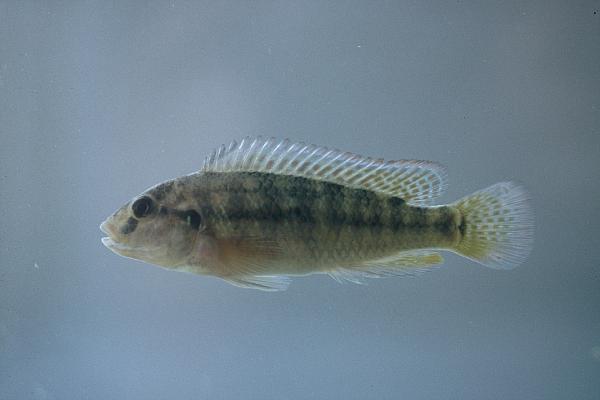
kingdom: Animalia
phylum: Chordata
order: Perciformes
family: Cichlidae
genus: Orthochromis
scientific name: Orthochromis machadoi
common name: Cunene dwarf happy
